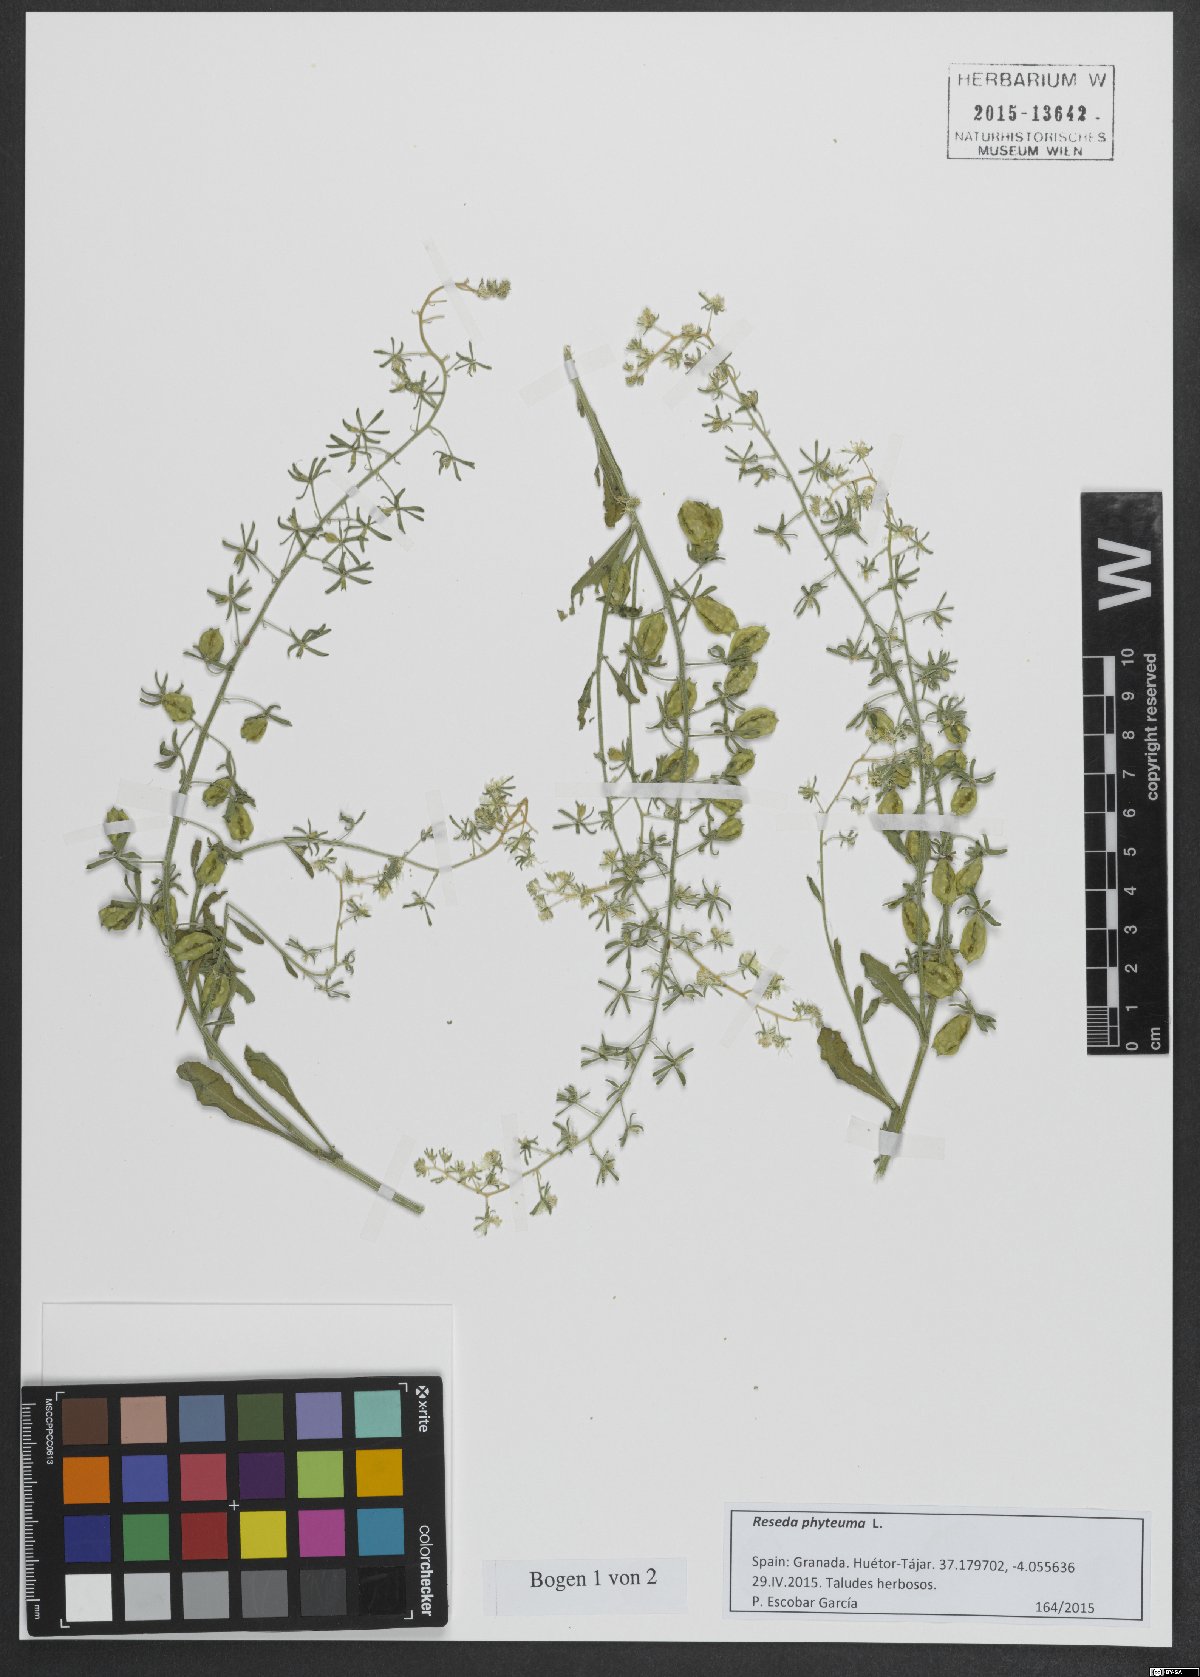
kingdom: Plantae
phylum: Tracheophyta
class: Magnoliopsida
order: Brassicales
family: Resedaceae
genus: Reseda
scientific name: Reseda phyteuma
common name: Corn mignonette
